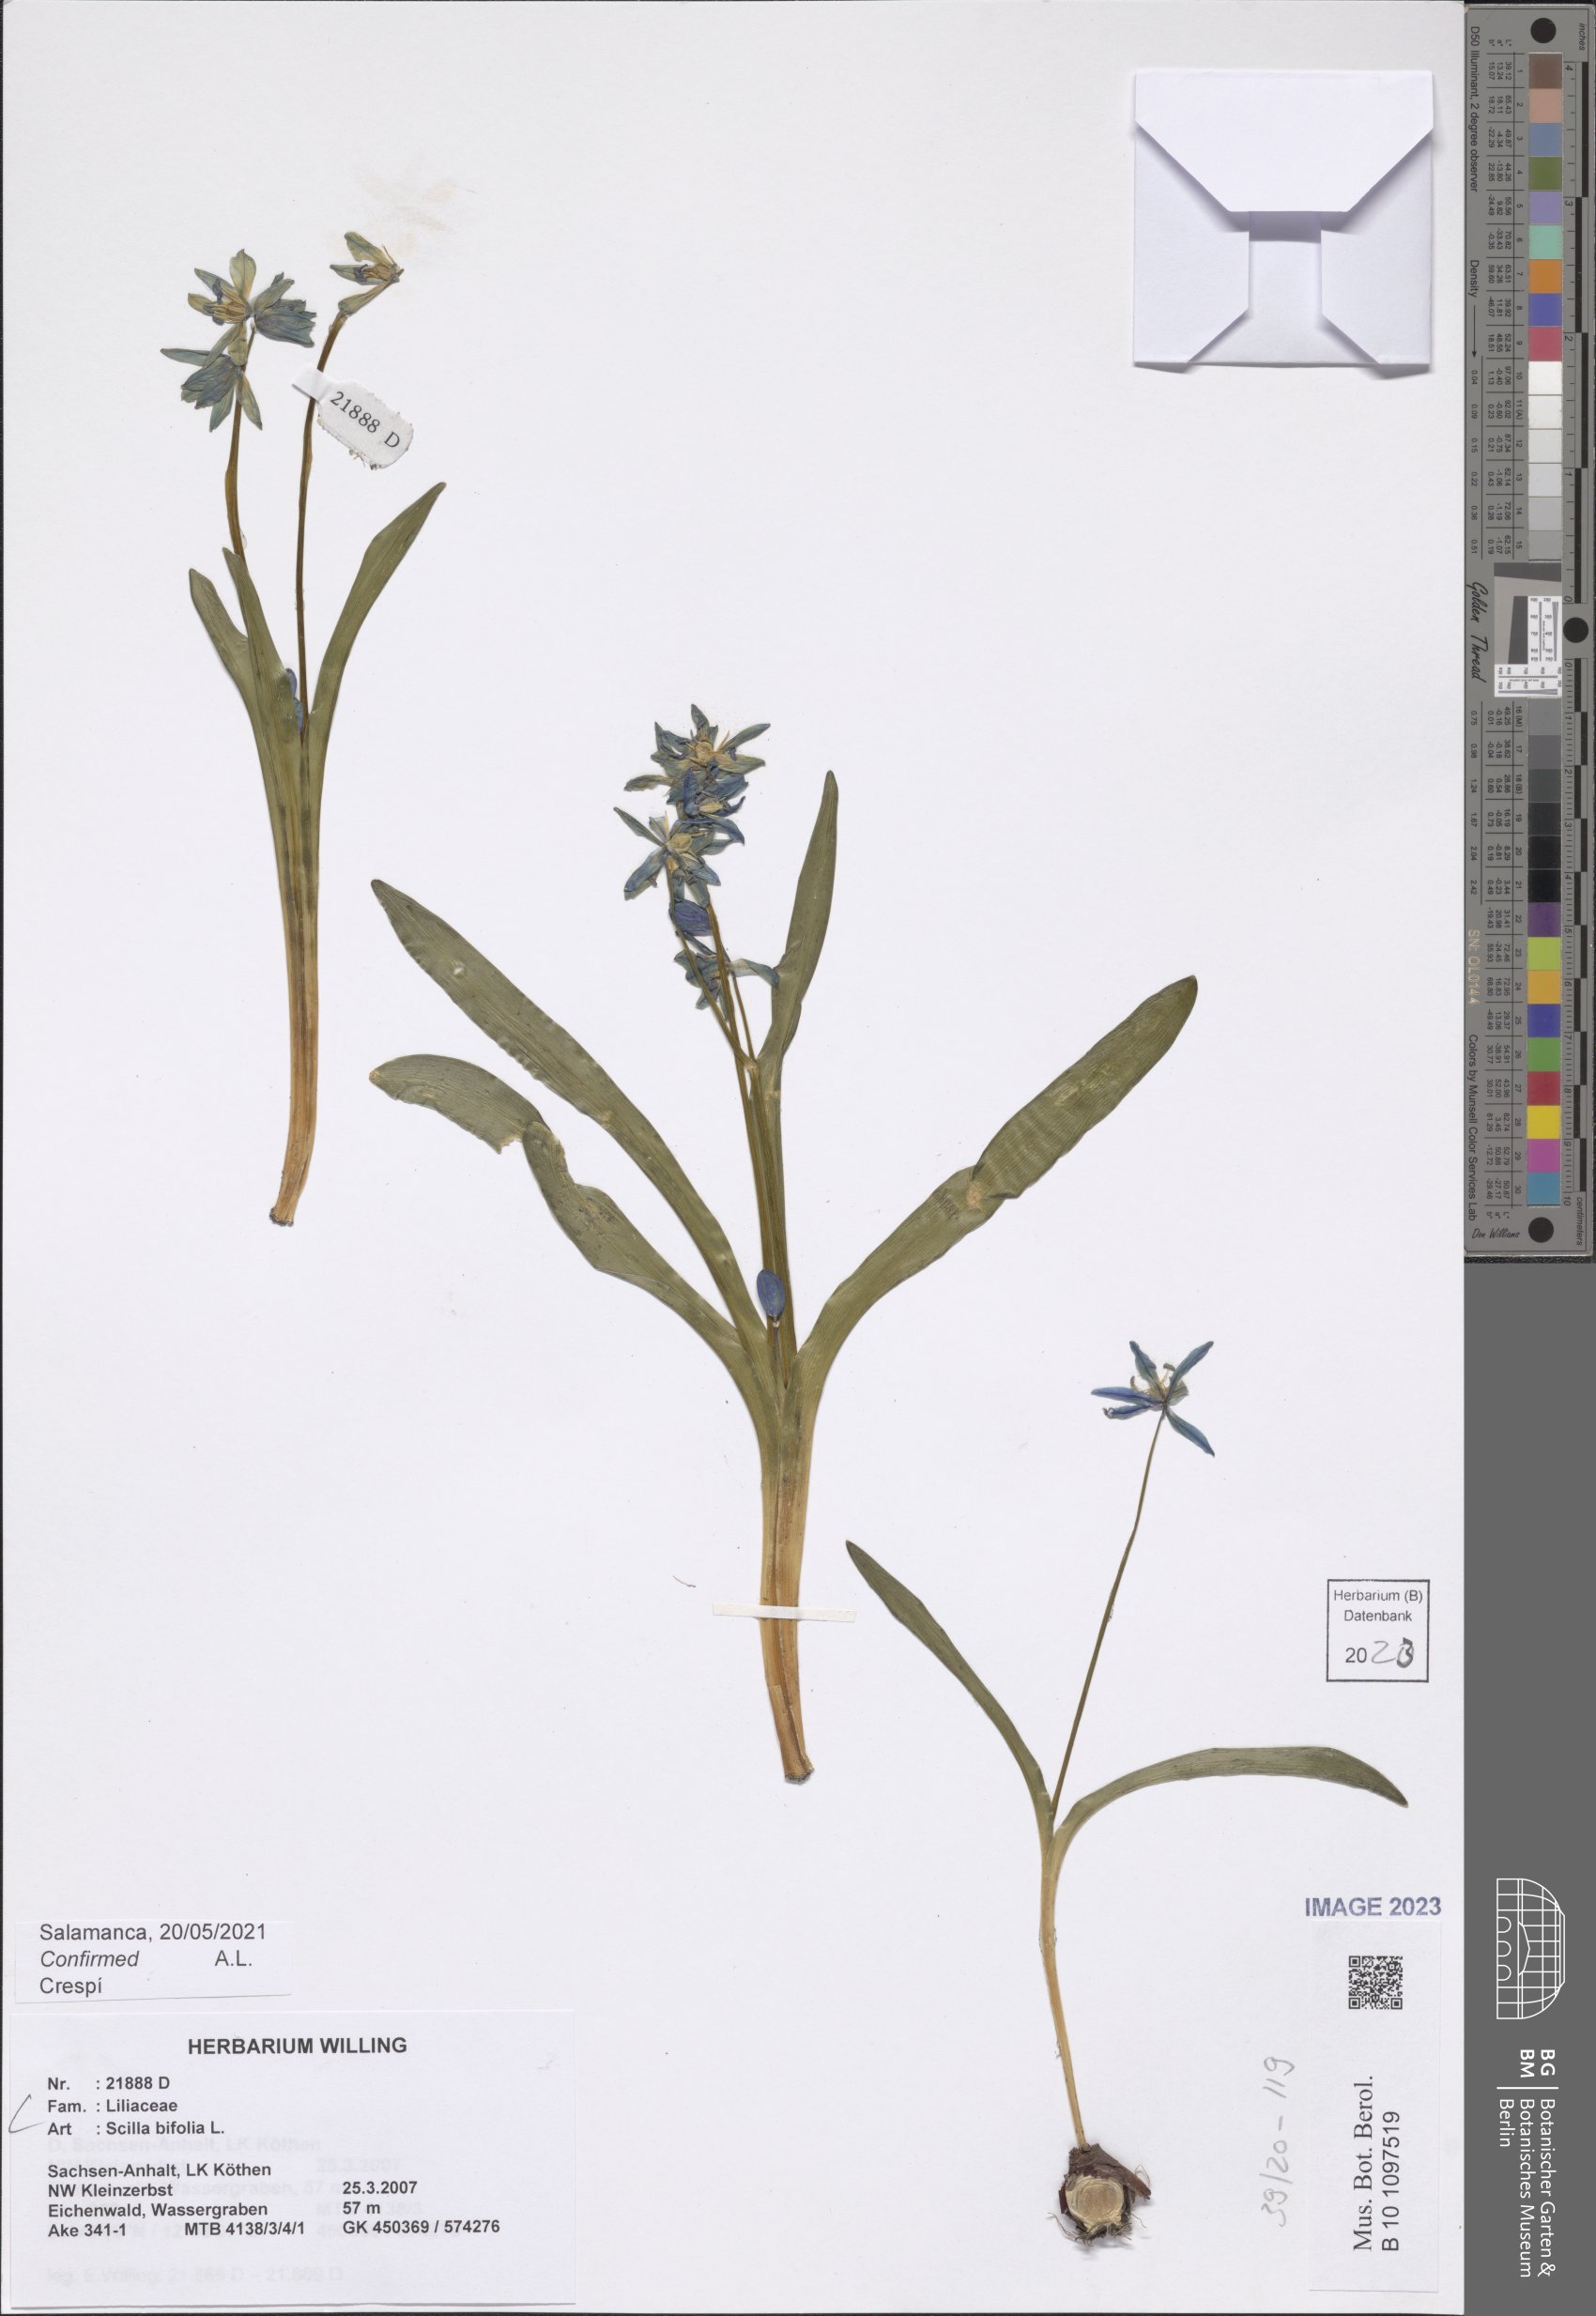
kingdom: Plantae
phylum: Tracheophyta
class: Liliopsida
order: Asparagales
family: Asparagaceae
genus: Scilla
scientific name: Scilla bifolia
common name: Alpine squill
